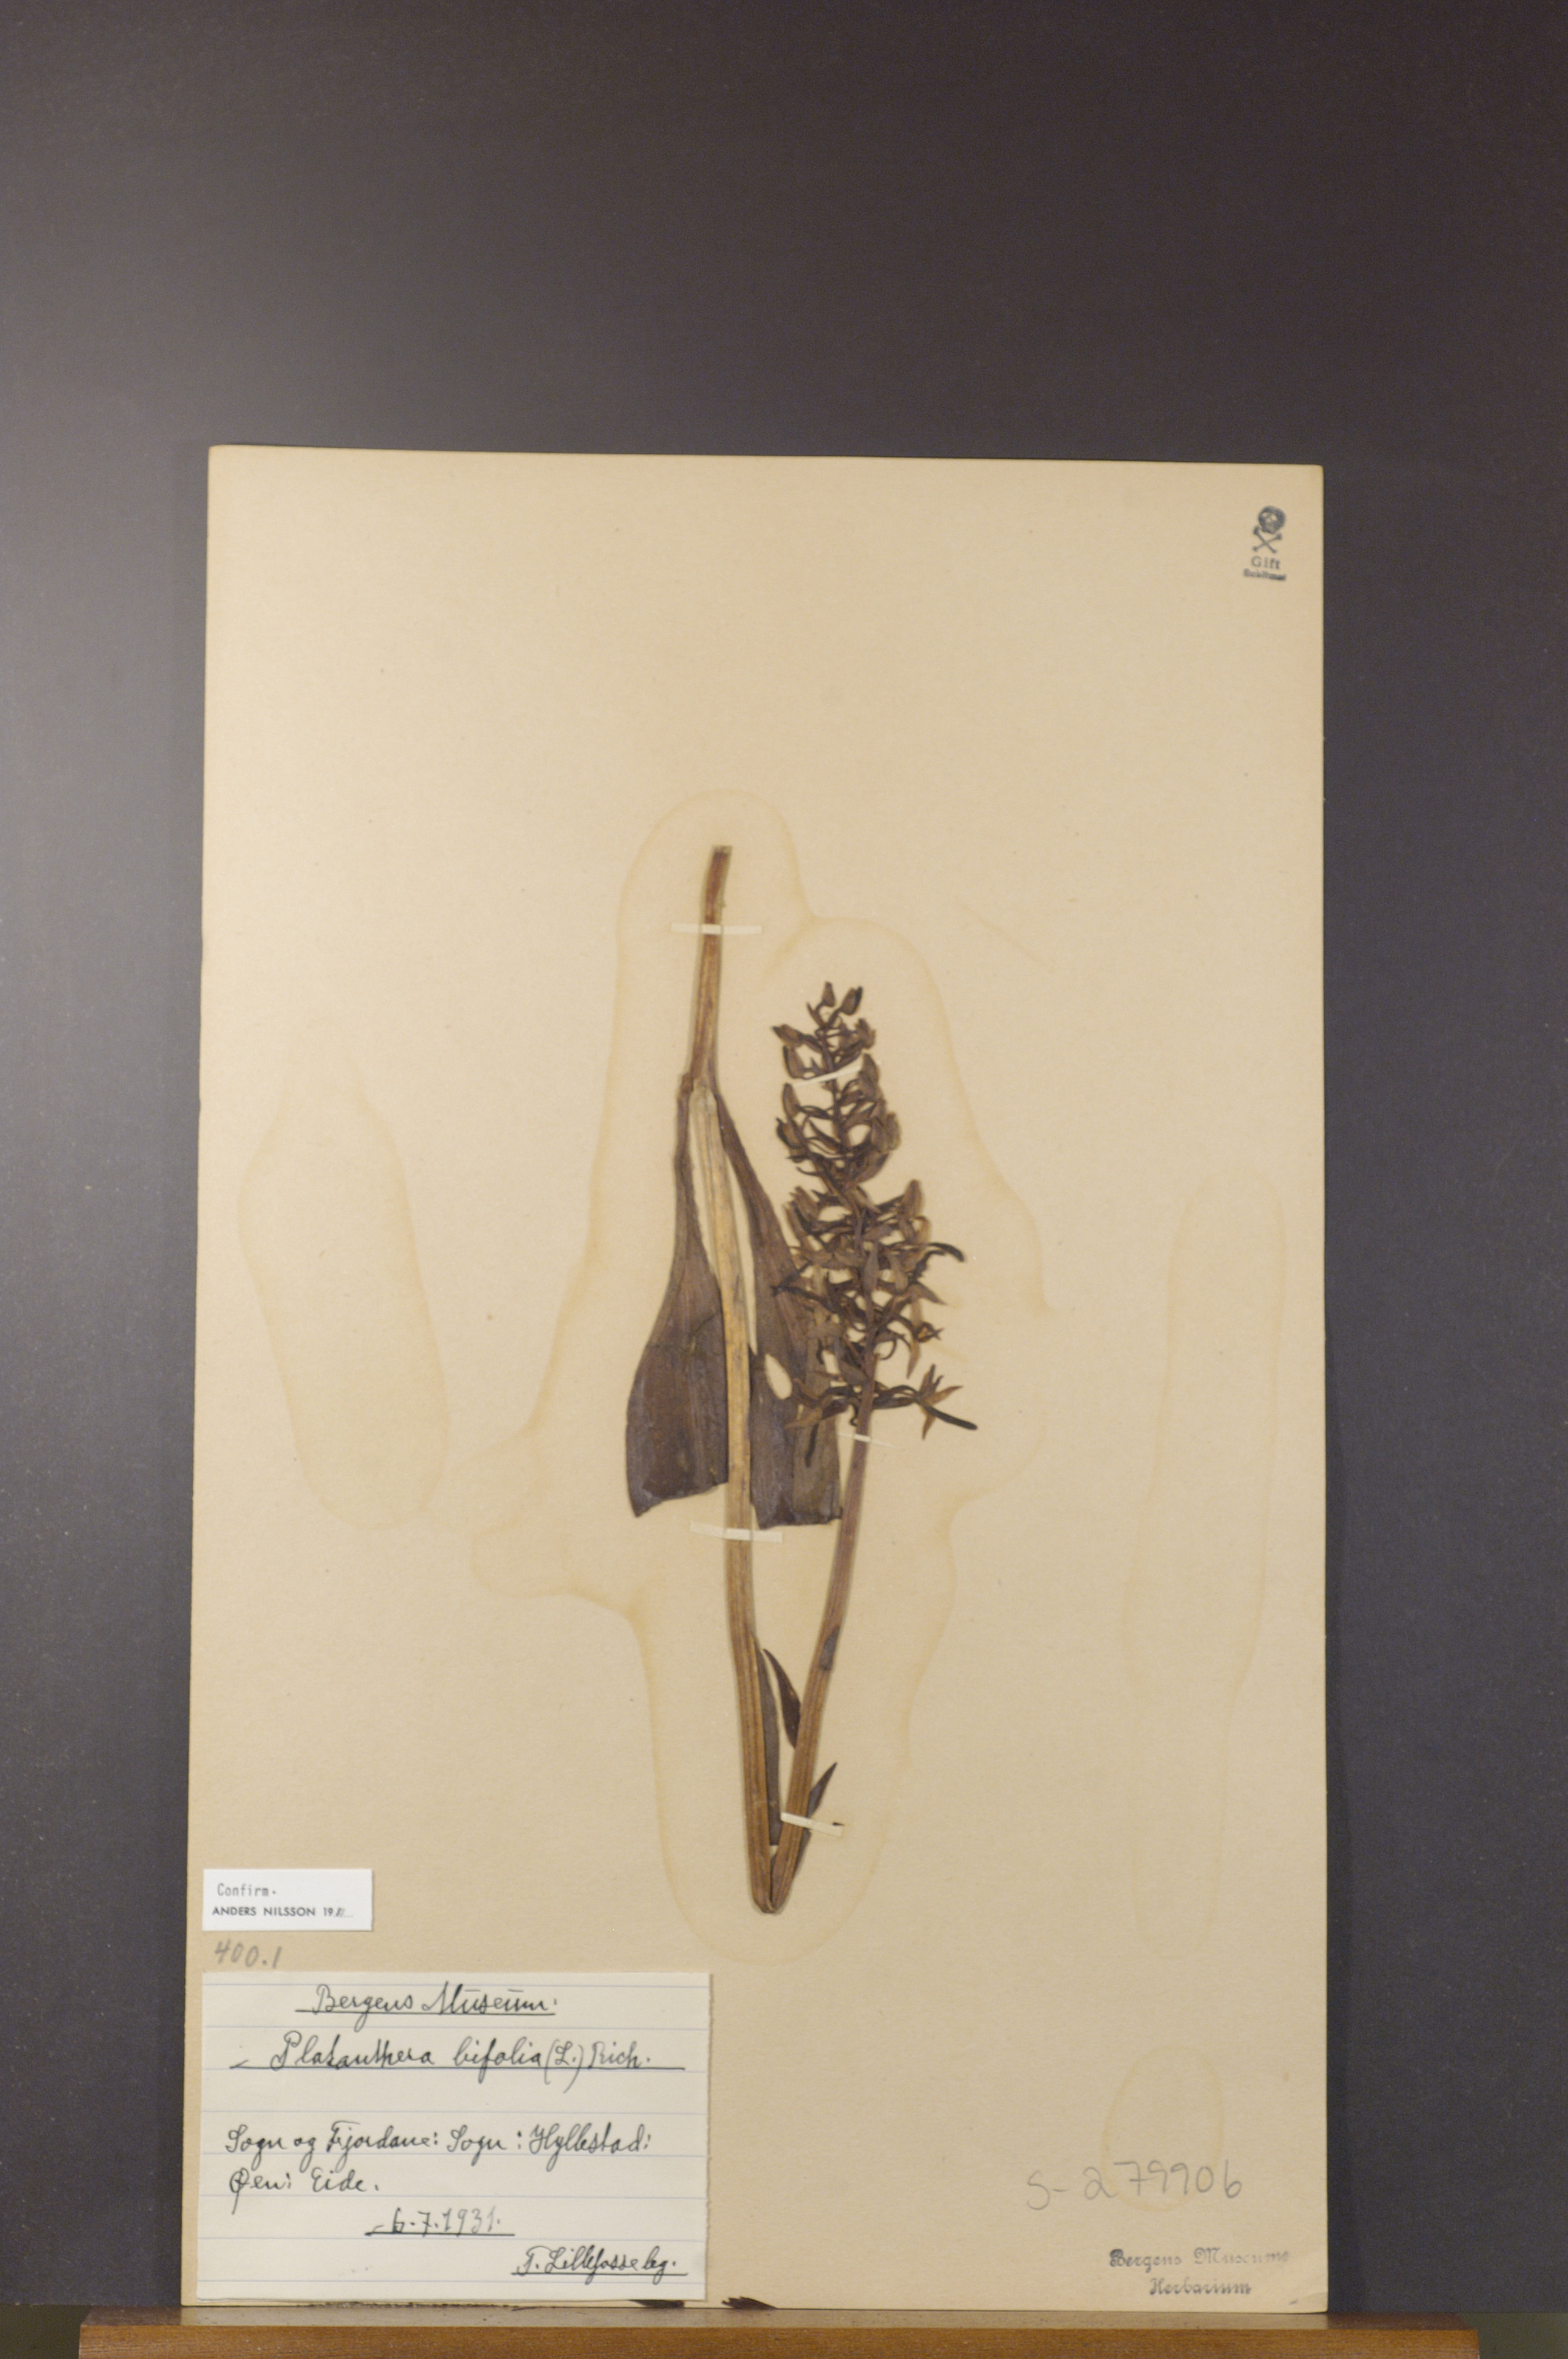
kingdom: Plantae
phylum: Tracheophyta
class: Liliopsida
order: Asparagales
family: Orchidaceae
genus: Platanthera
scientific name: Platanthera bifolia
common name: Lesser butterfly-orchid
